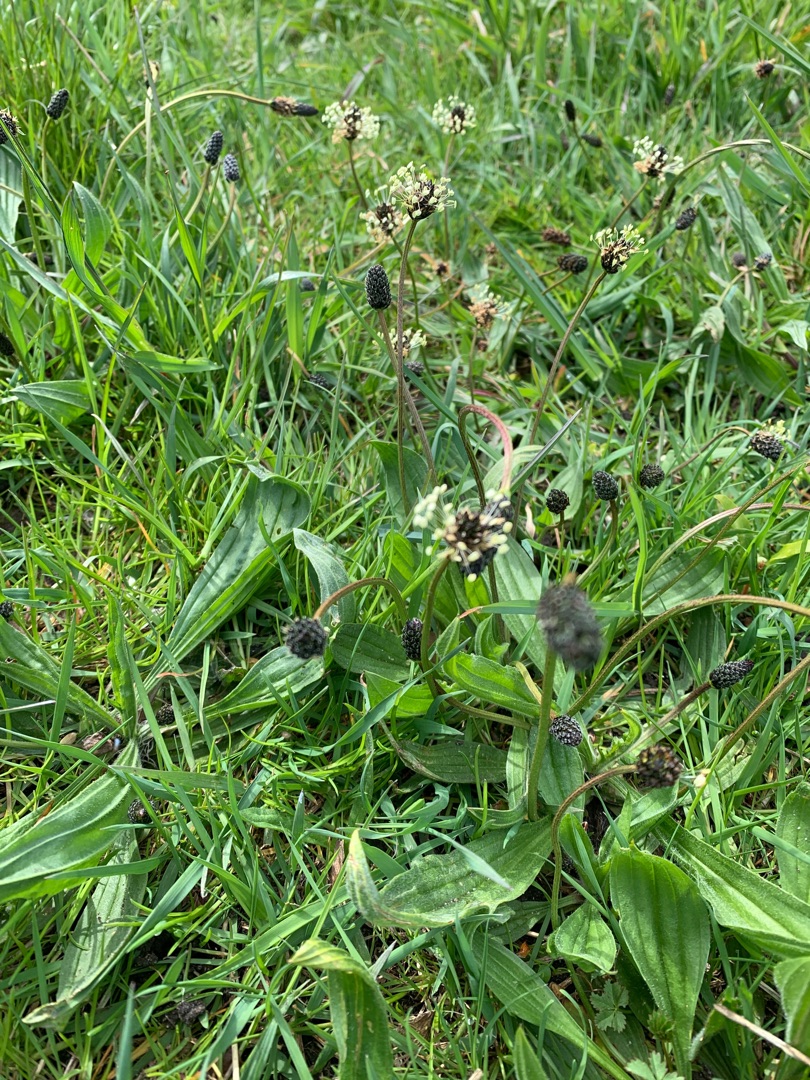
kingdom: Plantae
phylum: Tracheophyta
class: Magnoliopsida
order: Lamiales
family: Plantaginaceae
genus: Plantago
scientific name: Plantago lanceolata
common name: Lancet-vejbred
